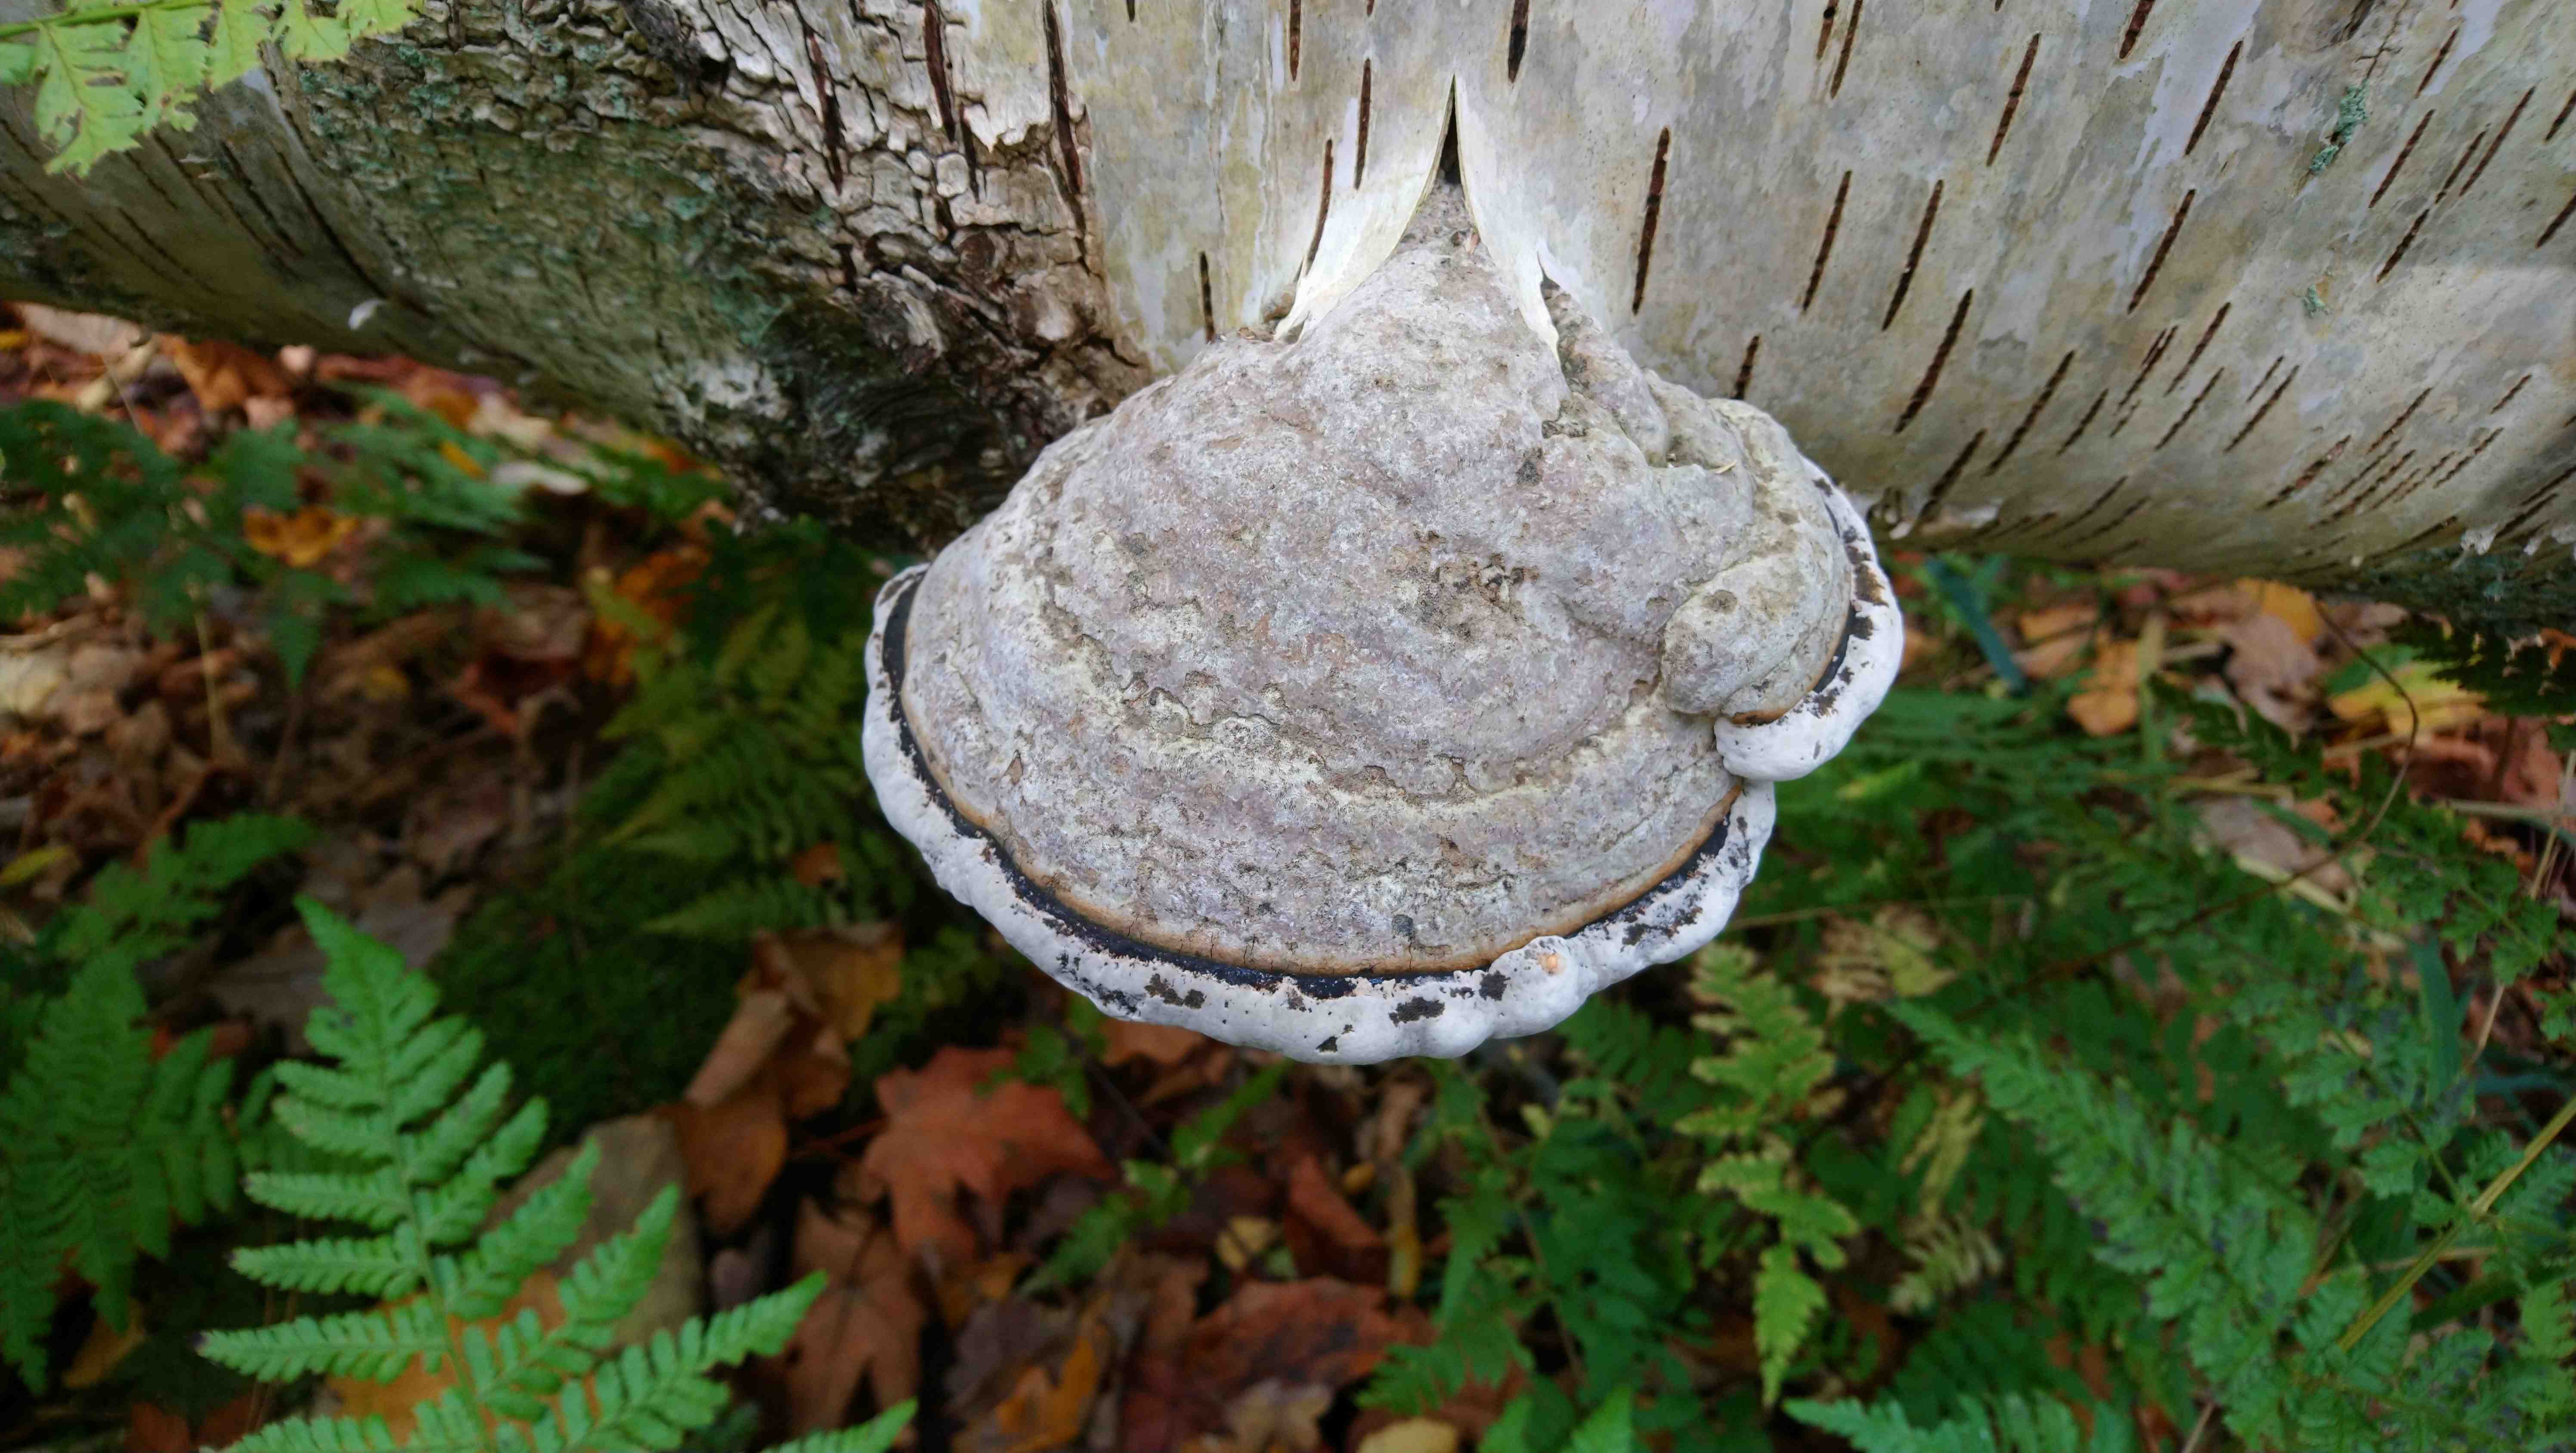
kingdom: Fungi
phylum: Basidiomycota
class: Agaricomycetes
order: Polyporales
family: Polyporaceae
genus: Fomes
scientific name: Fomes fomentarius
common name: tøndersvamp
